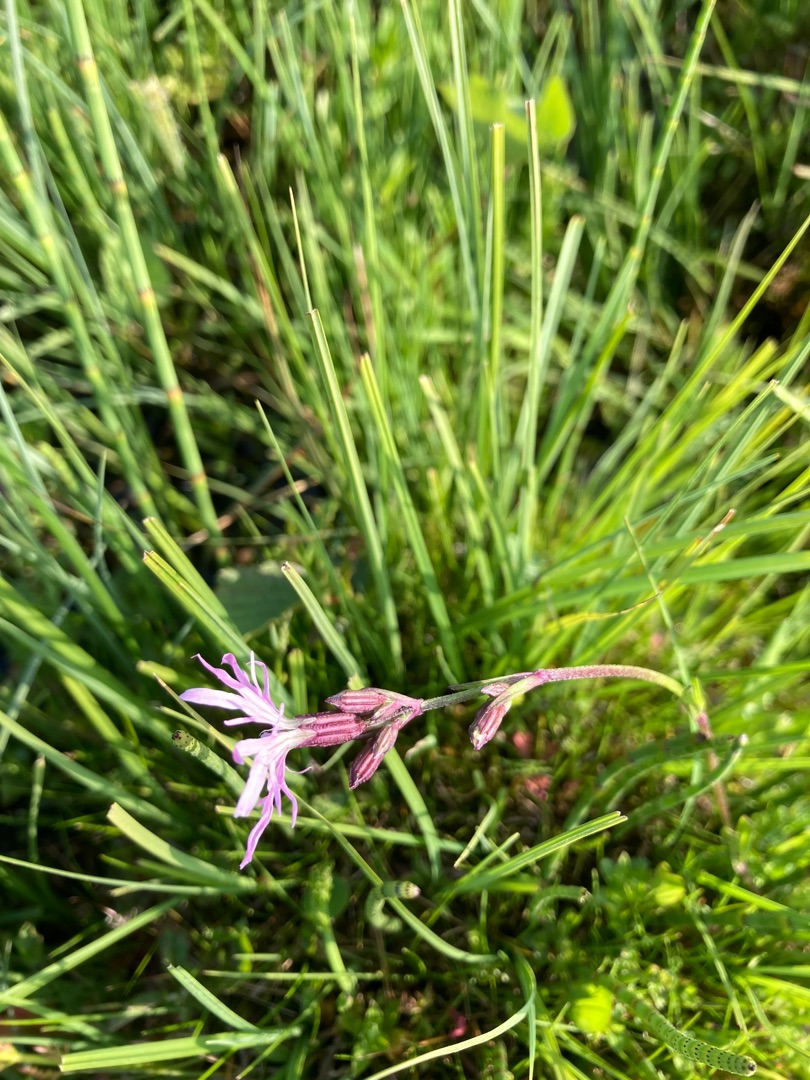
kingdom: Plantae
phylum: Tracheophyta
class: Magnoliopsida
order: Caryophyllales
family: Caryophyllaceae
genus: Silene
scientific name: Silene flos-cuculi
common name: Trævlekrone
